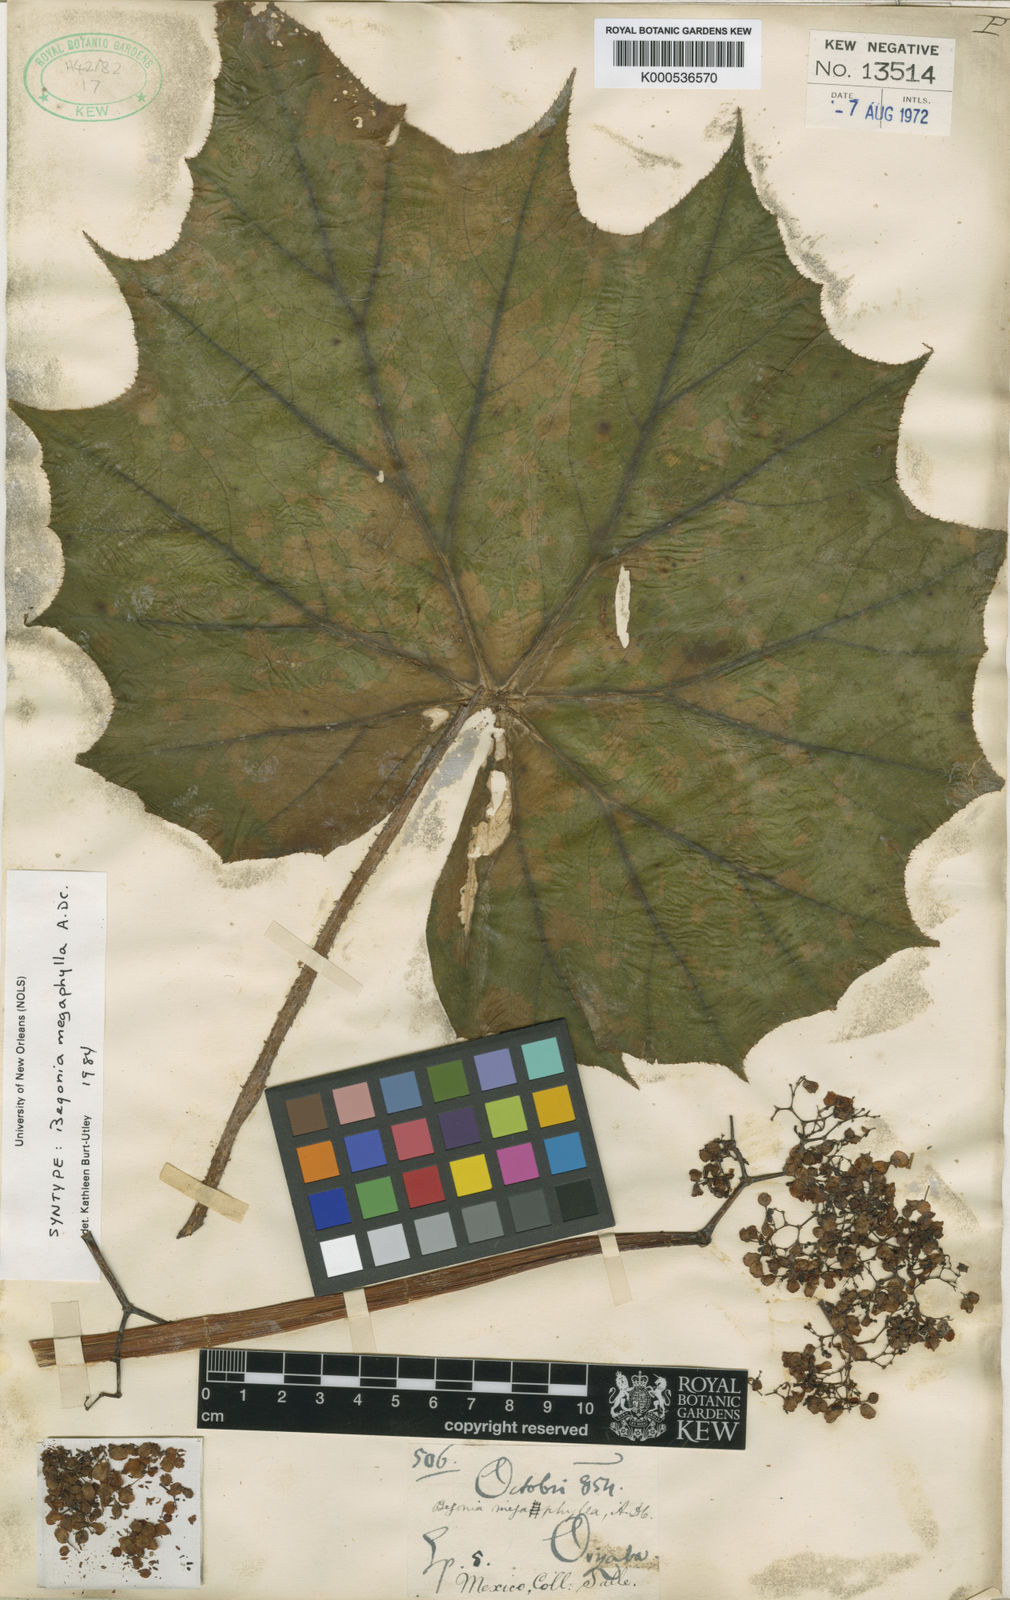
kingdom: Plantae
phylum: Tracheophyta
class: Magnoliopsida
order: Cucurbitales
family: Begoniaceae
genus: Begonia
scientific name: Begonia barkeri
